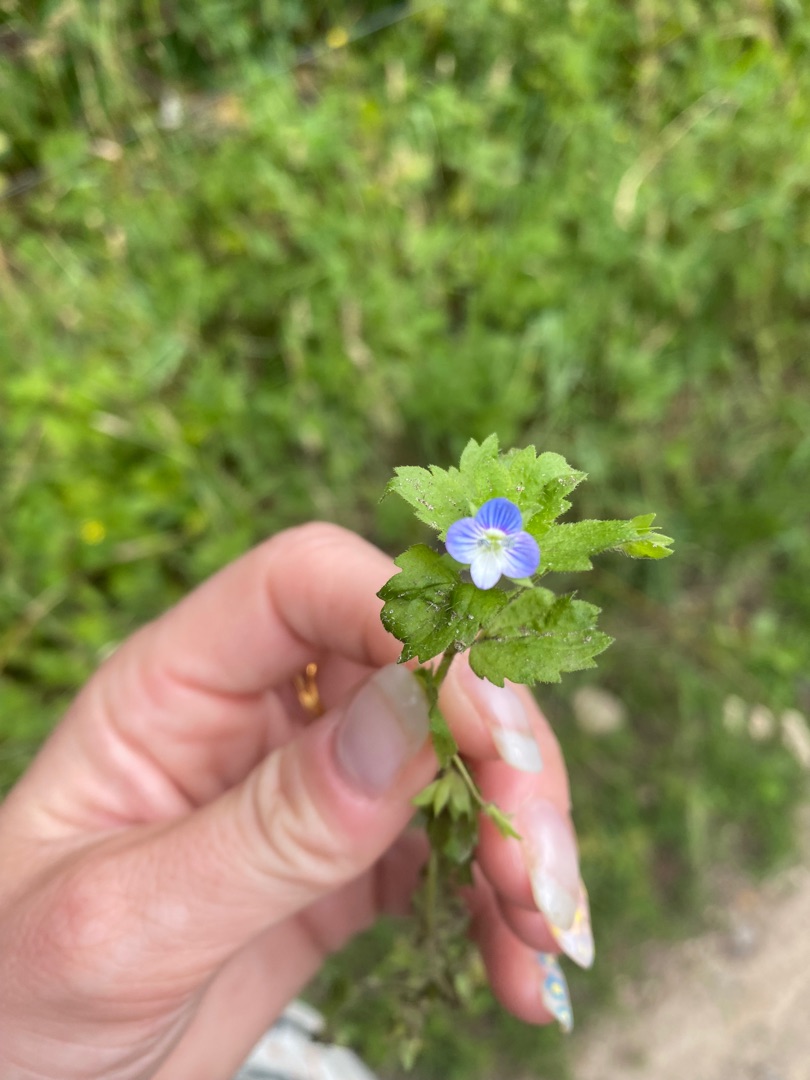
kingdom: Plantae
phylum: Tracheophyta
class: Magnoliopsida
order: Lamiales
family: Plantaginaceae
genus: Veronica
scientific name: Veronica persica
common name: Storkronet ærenpris
